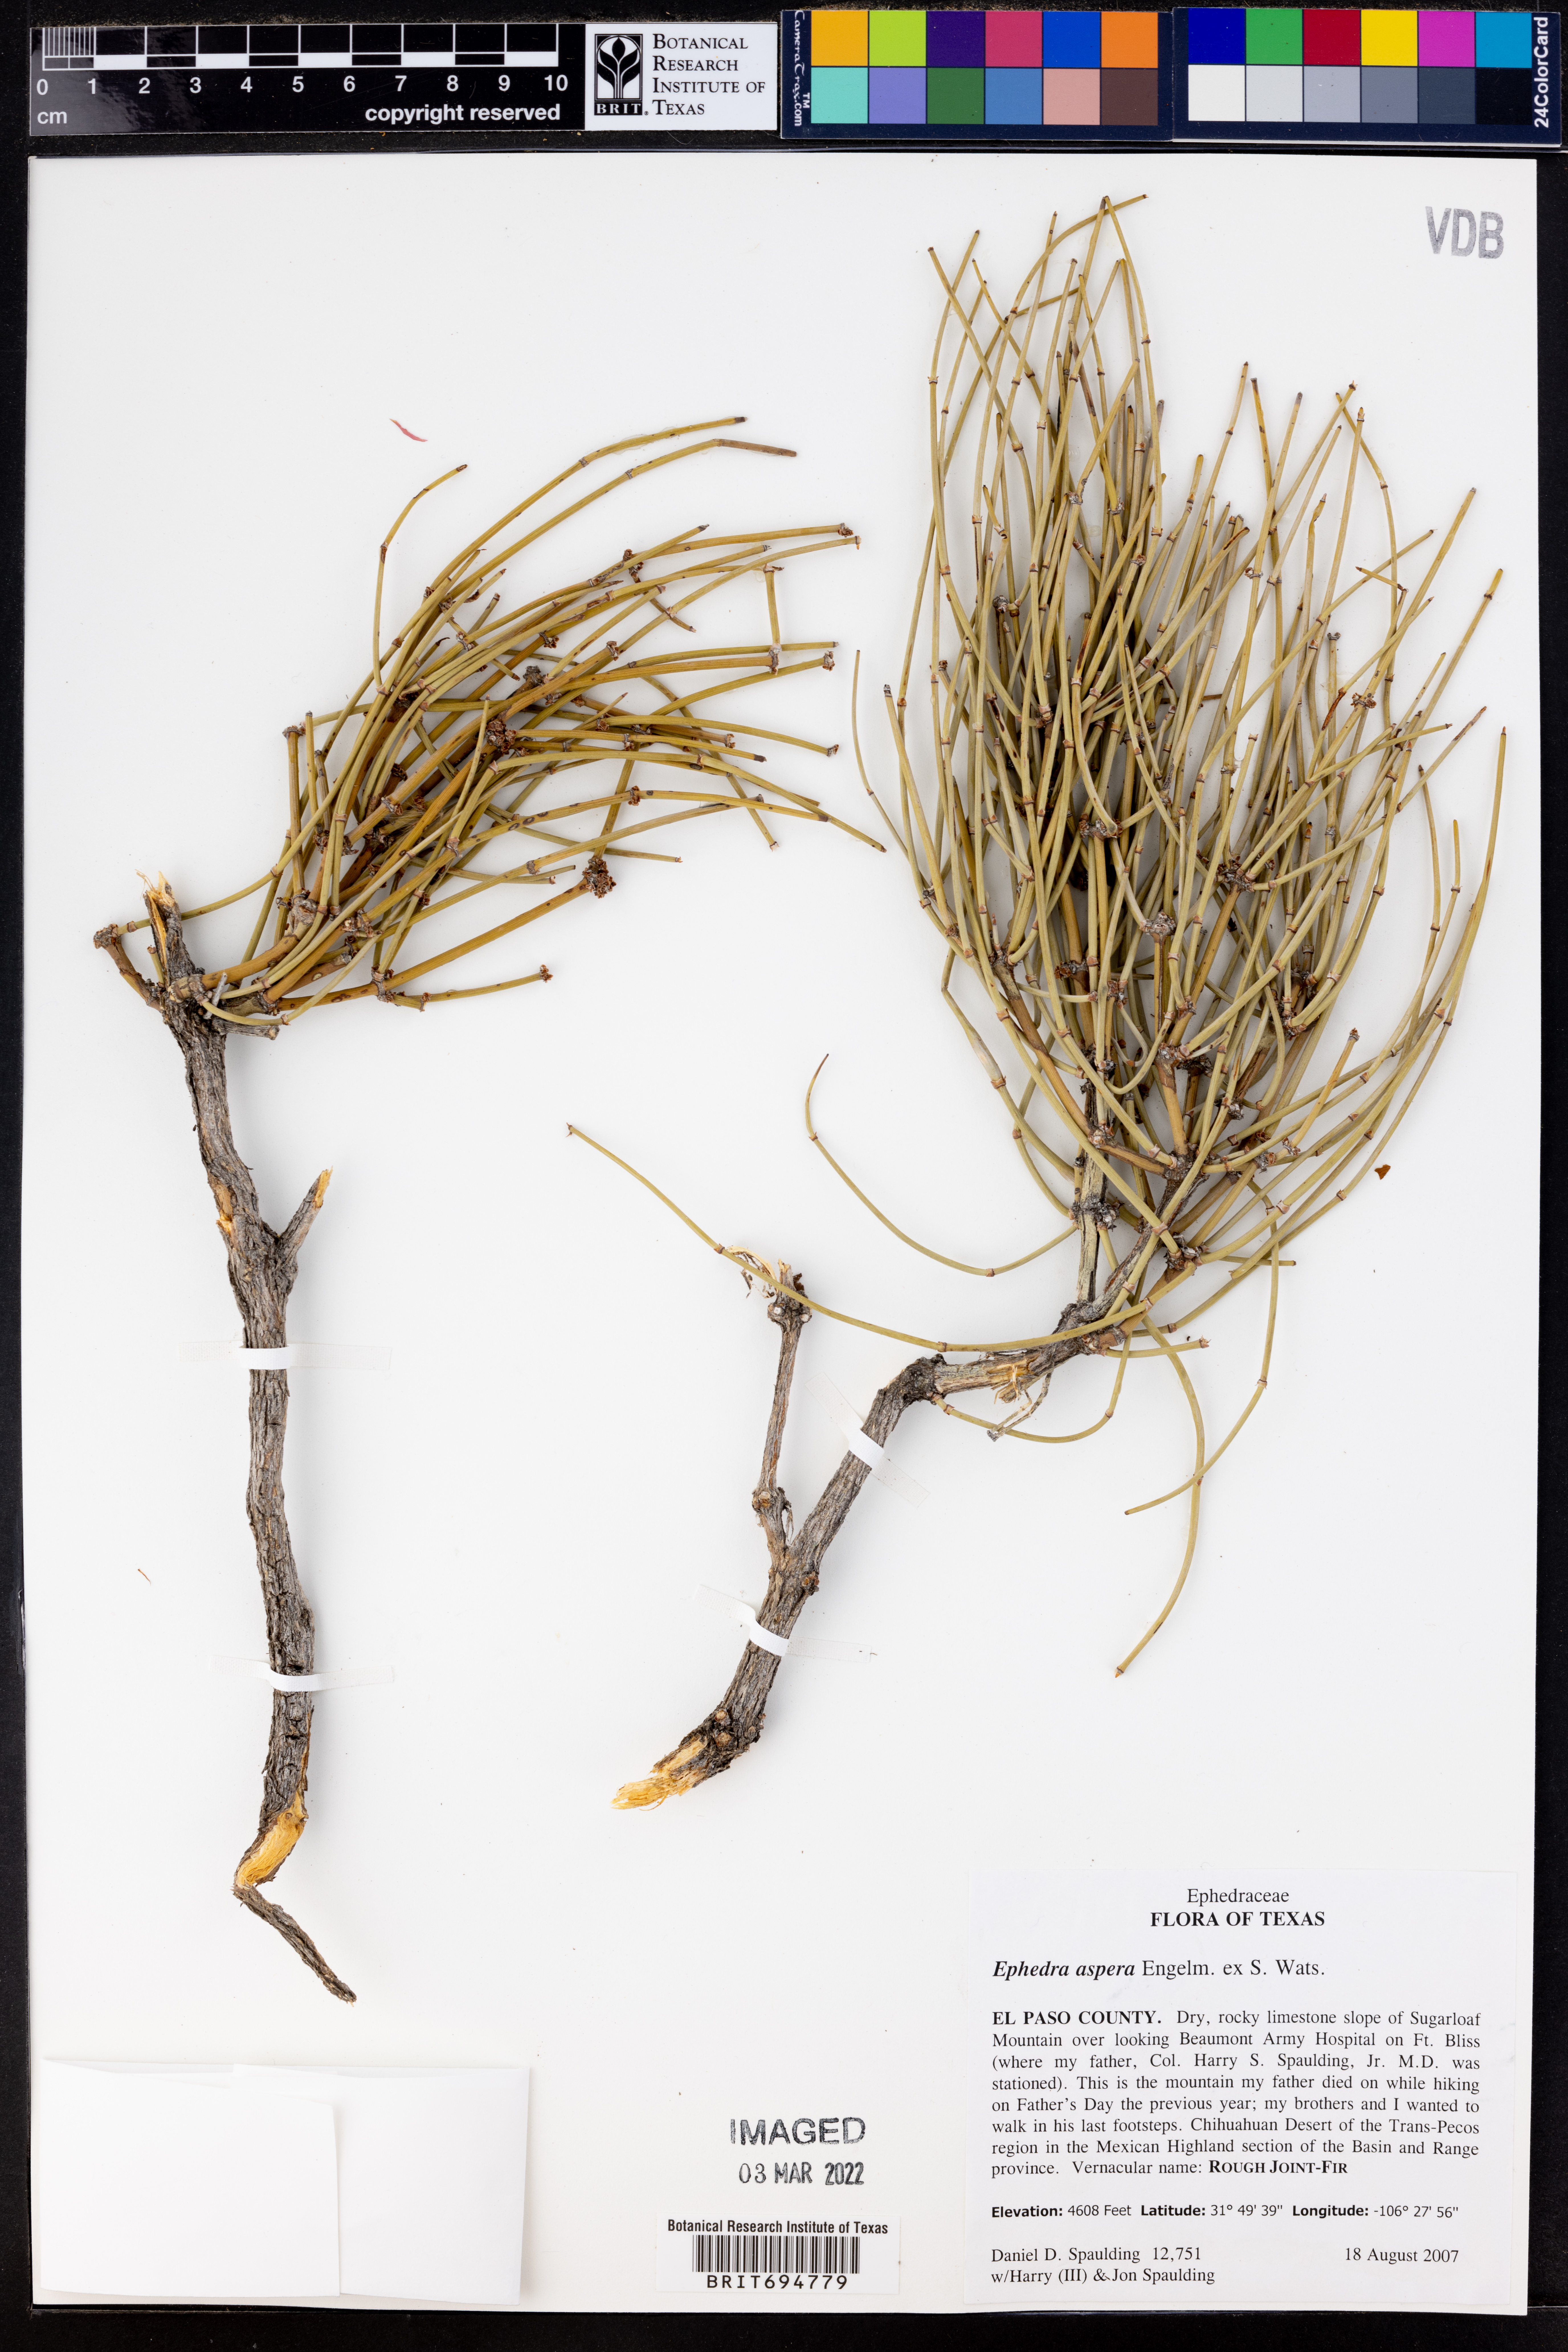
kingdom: Plantae
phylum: Tracheophyta
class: Gnetopsida
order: Ephedrales
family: Ephedraceae
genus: Ephedra
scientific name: Ephedra aspera
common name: Boundary ephedra
